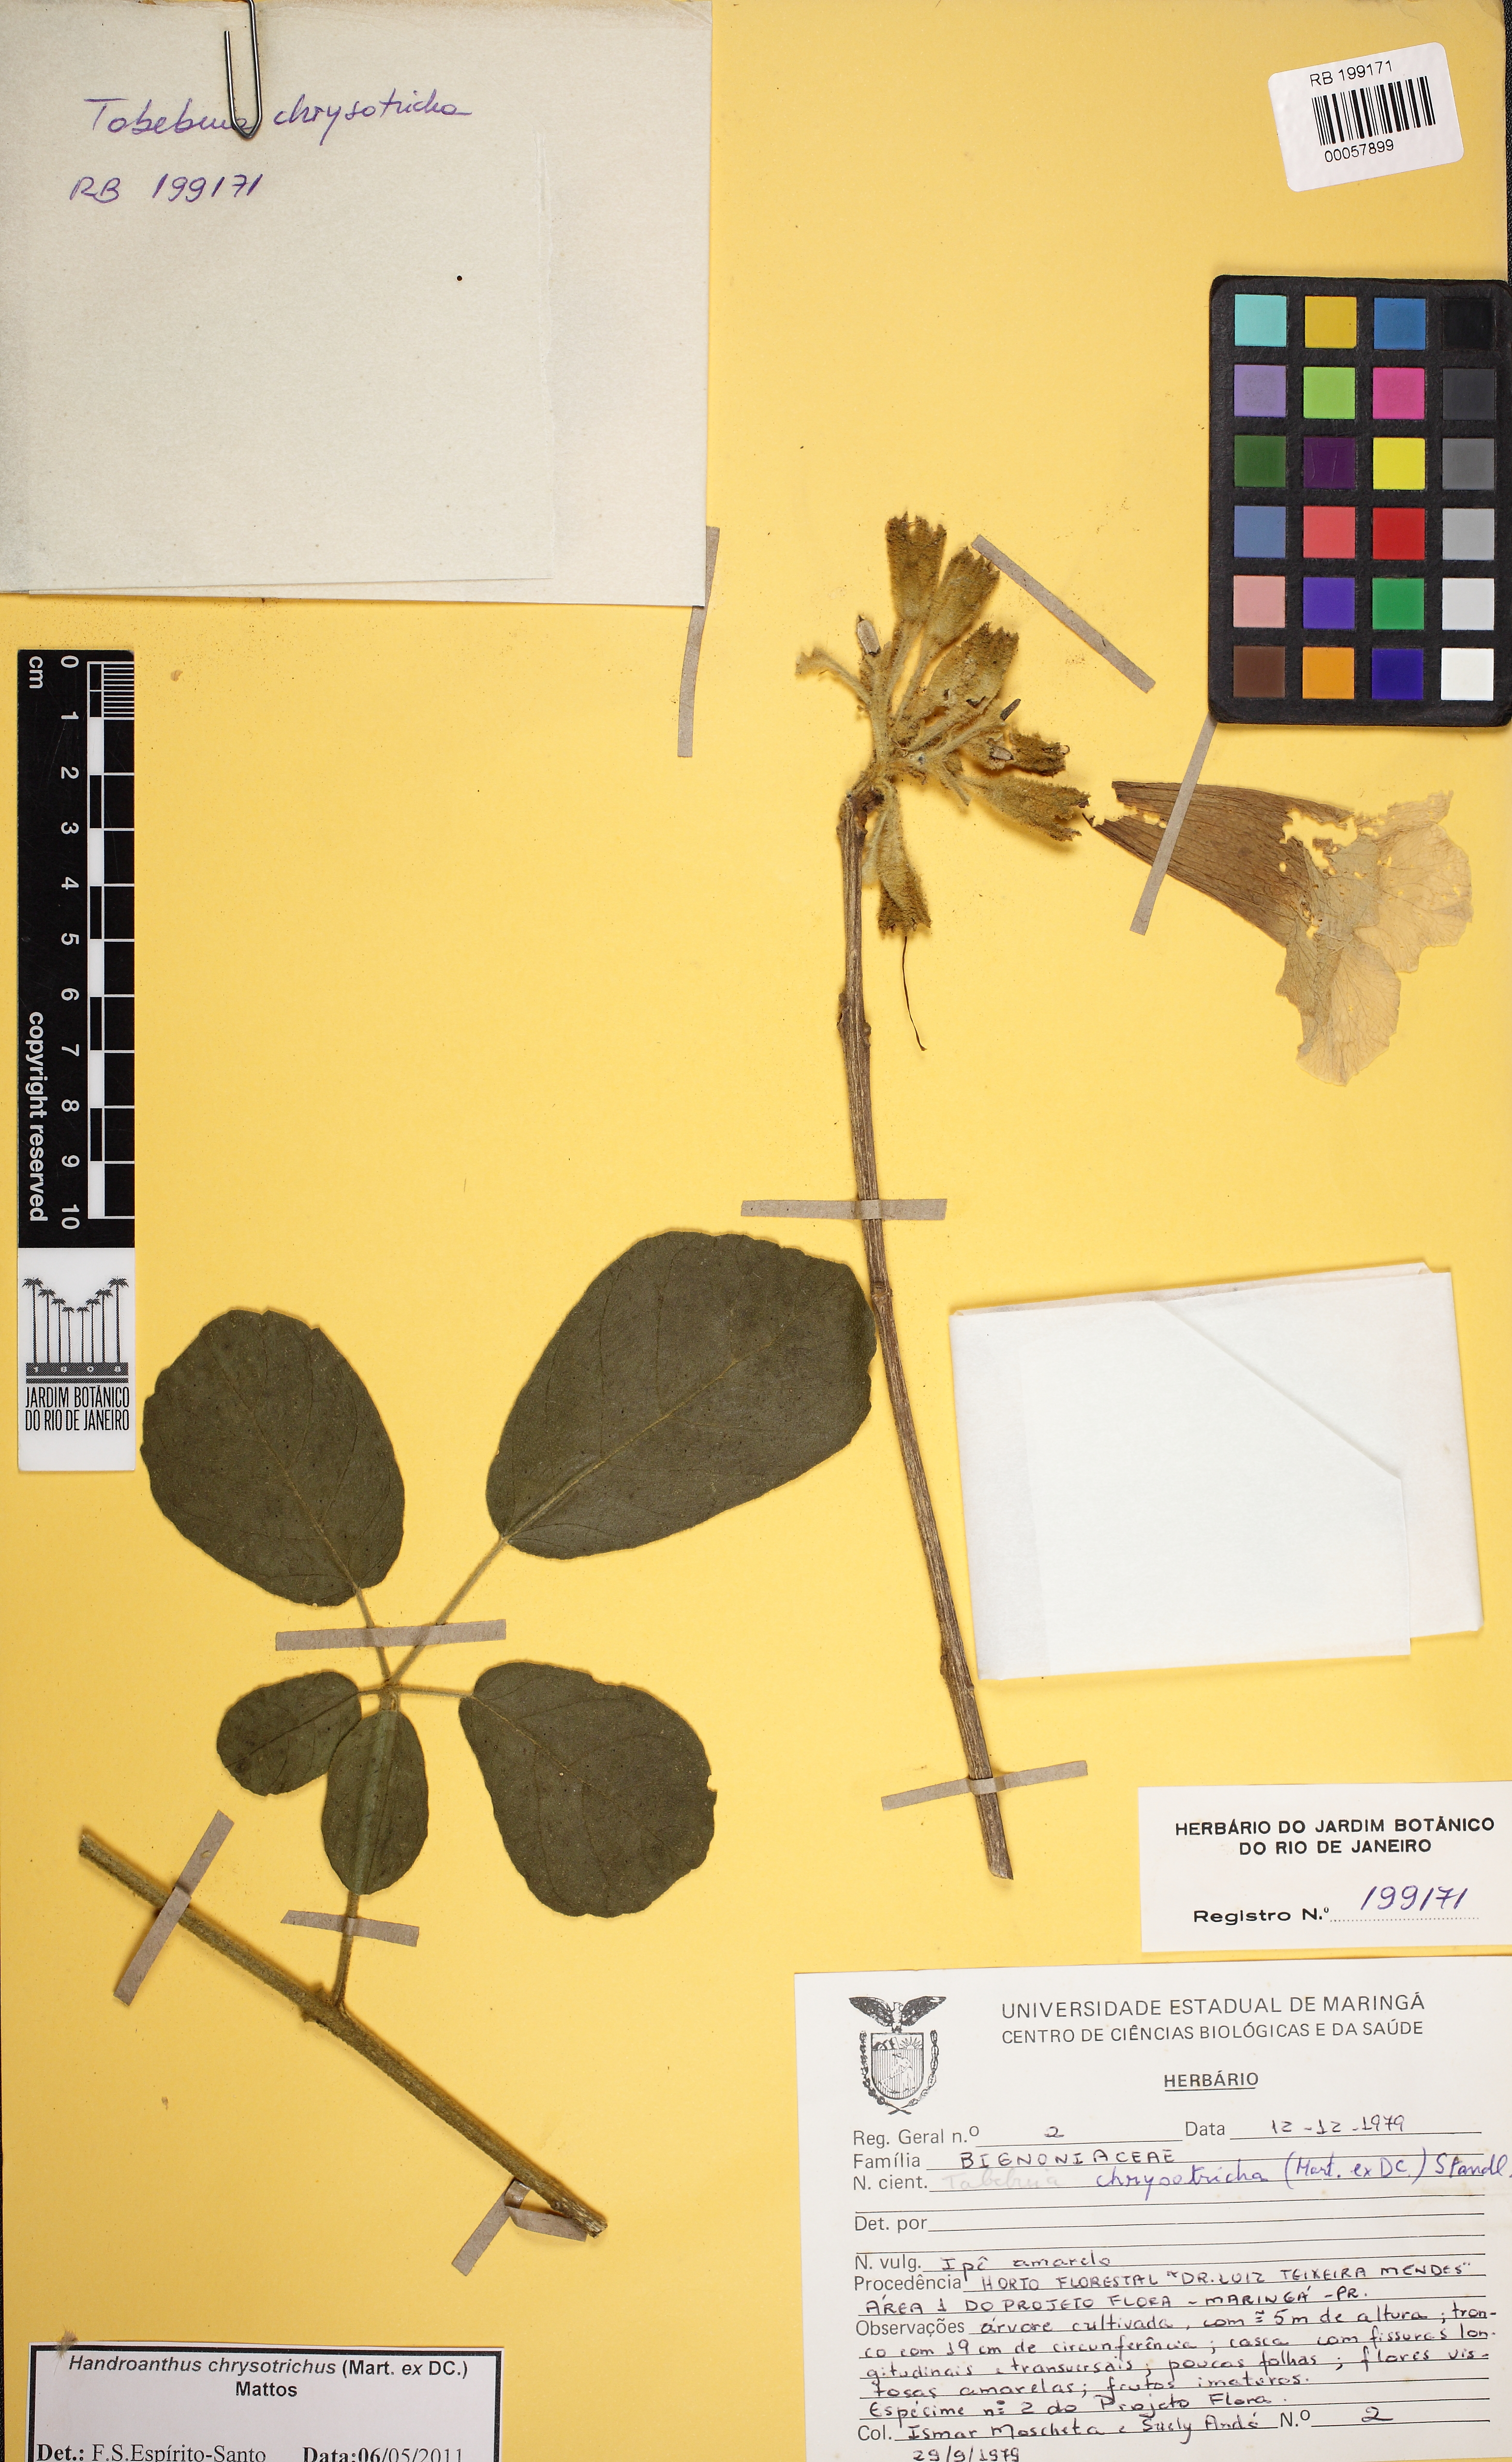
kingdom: Plantae
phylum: Tracheophyta
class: Magnoliopsida
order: Lamiales
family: Bignoniaceae
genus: Handroanthus
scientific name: Handroanthus chrysotrichus
